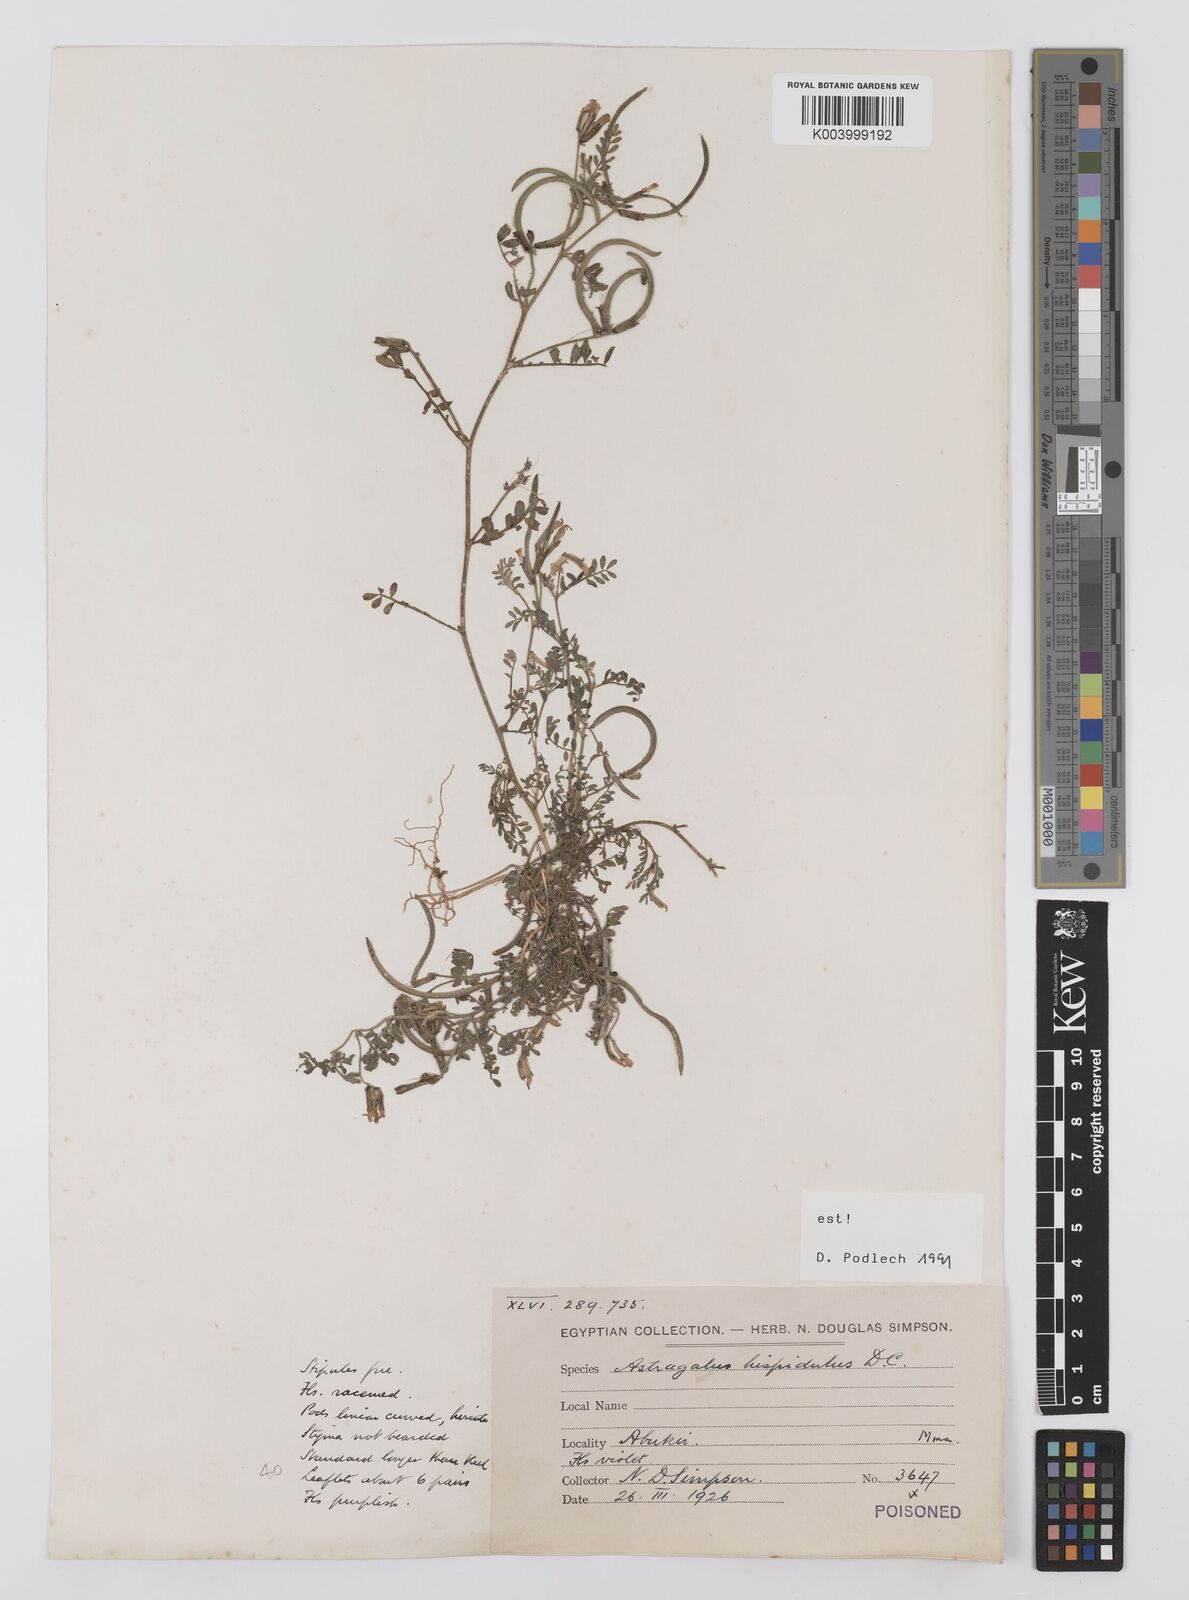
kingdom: Plantae
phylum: Tracheophyta
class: Magnoliopsida
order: Fabales
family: Fabaceae
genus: Astragalus
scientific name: Astragalus hispidulus
